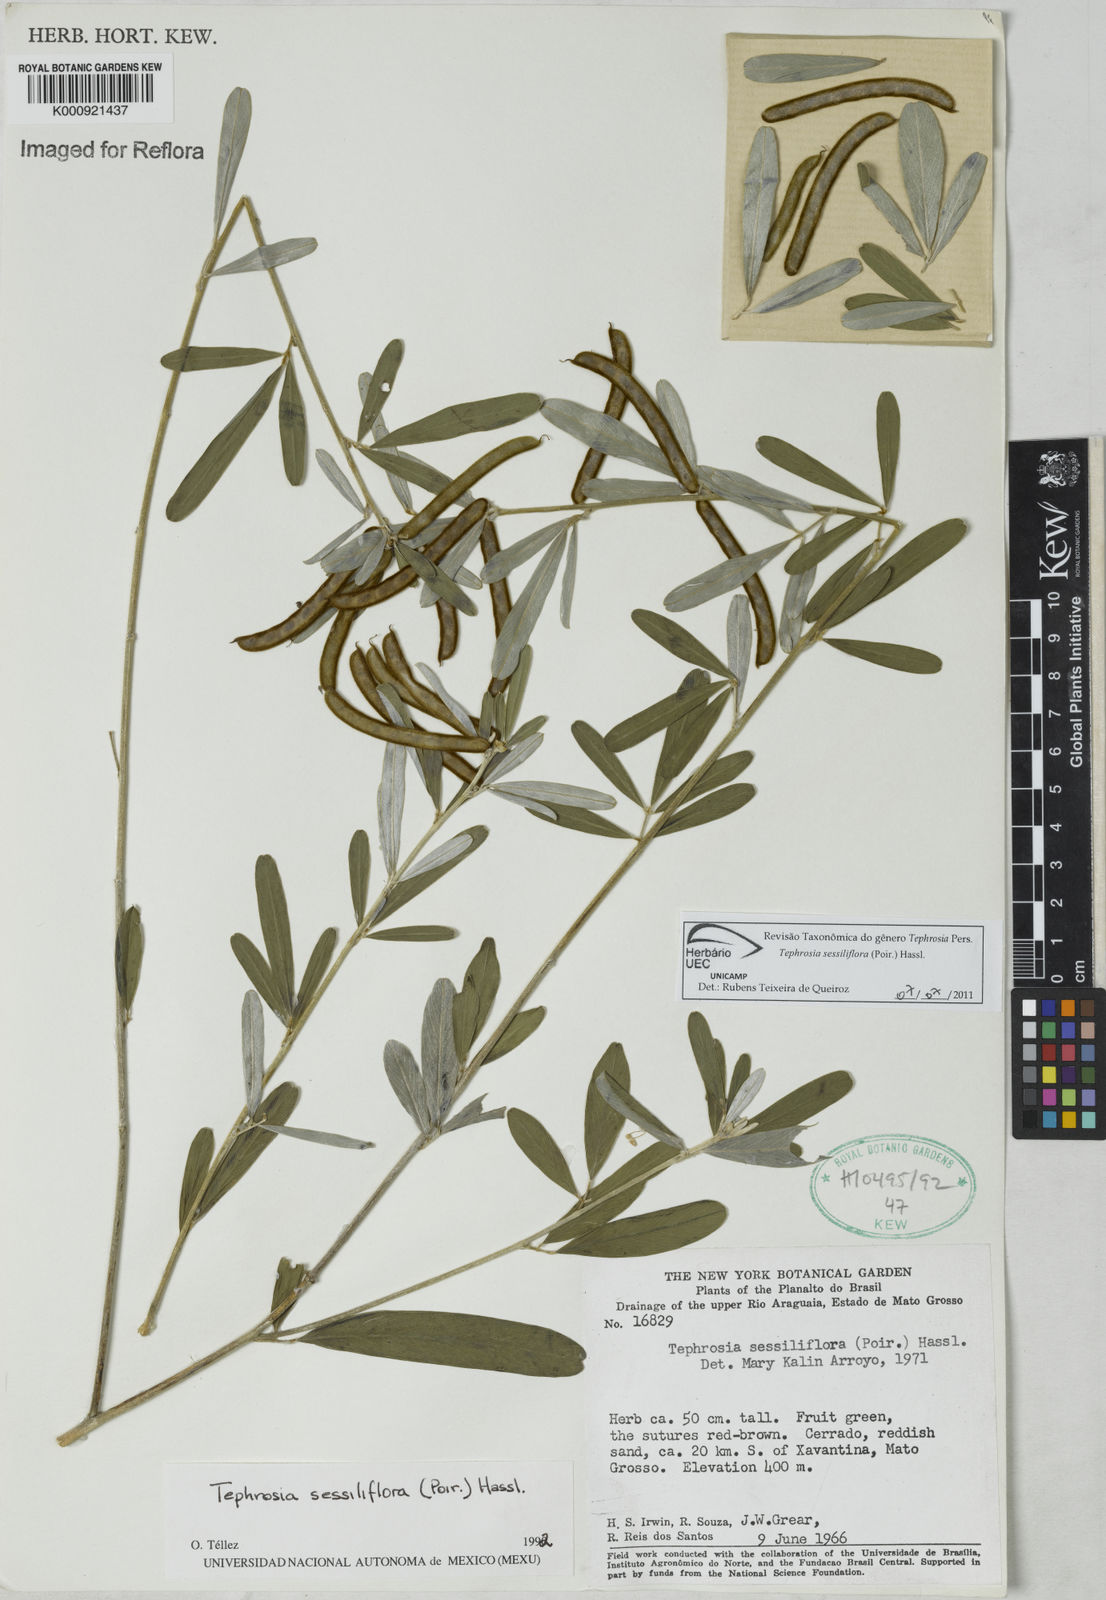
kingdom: Plantae
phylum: Tracheophyta
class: Magnoliopsida
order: Fabales
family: Fabaceae
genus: Tephrosia
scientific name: Tephrosia sessiliflora
